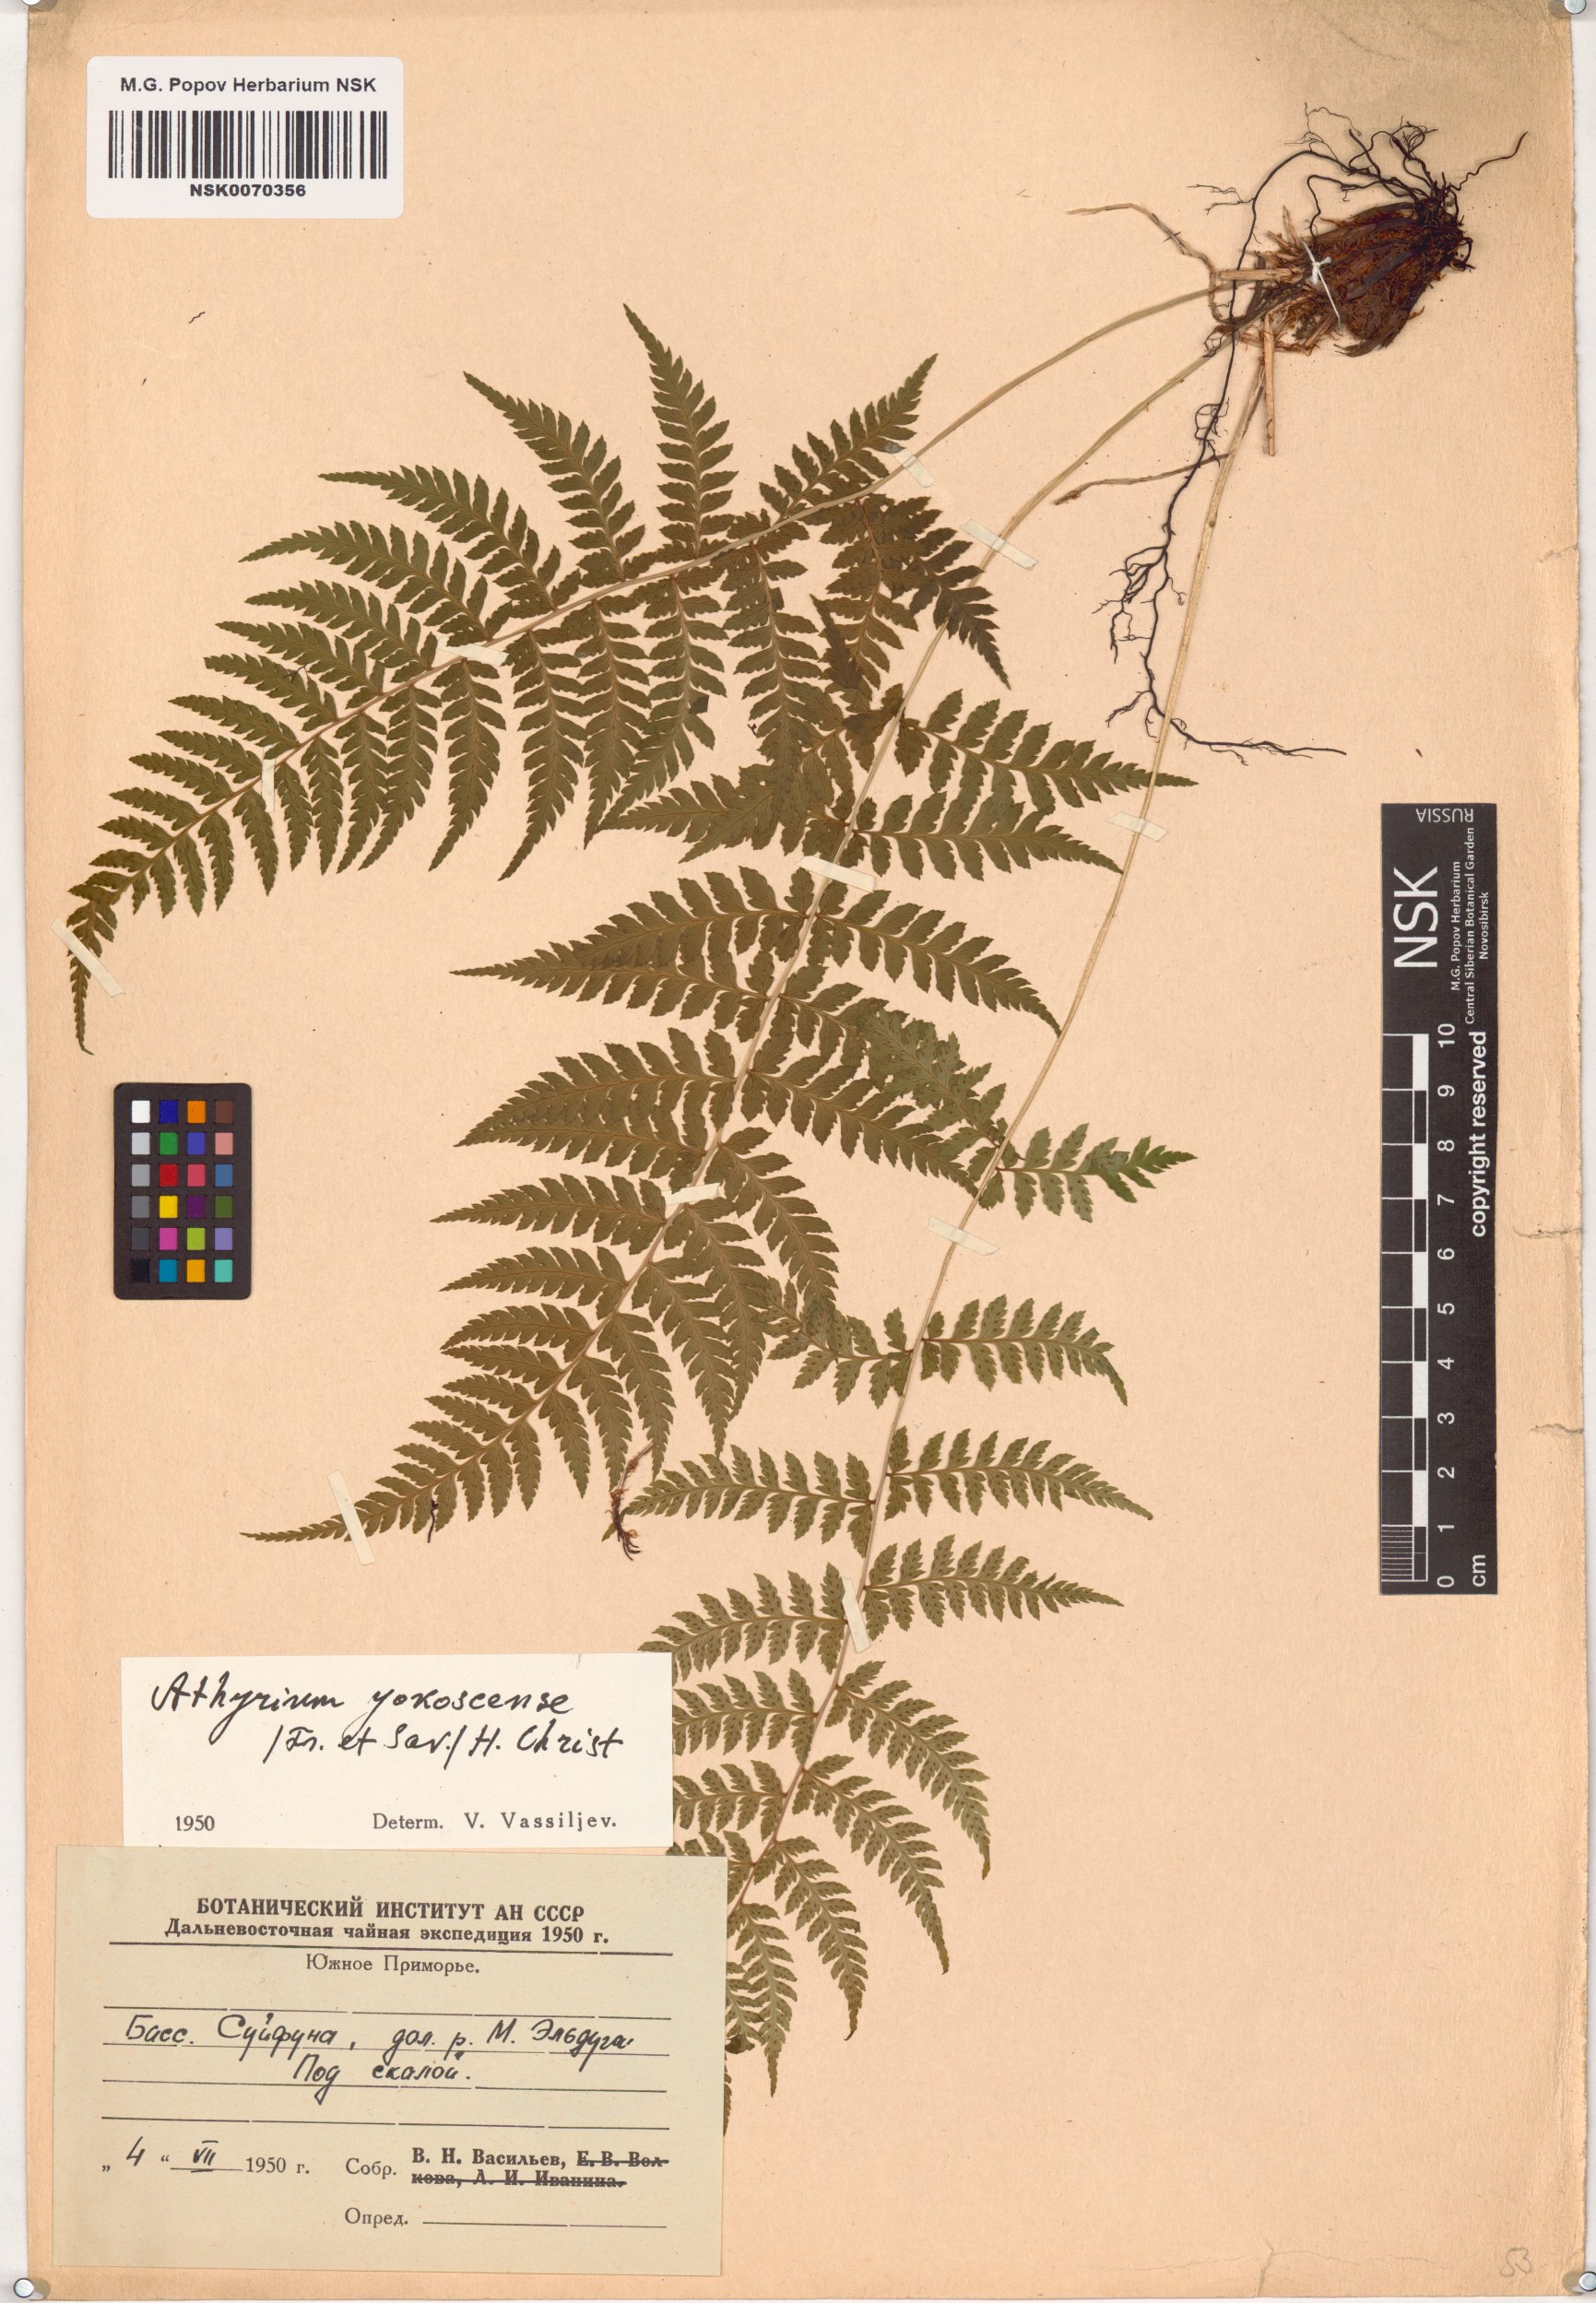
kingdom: Plantae
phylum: Tracheophyta
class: Polypodiopsida
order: Polypodiales
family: Athyriaceae
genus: Athyrium
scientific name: Athyrium yokoscense
